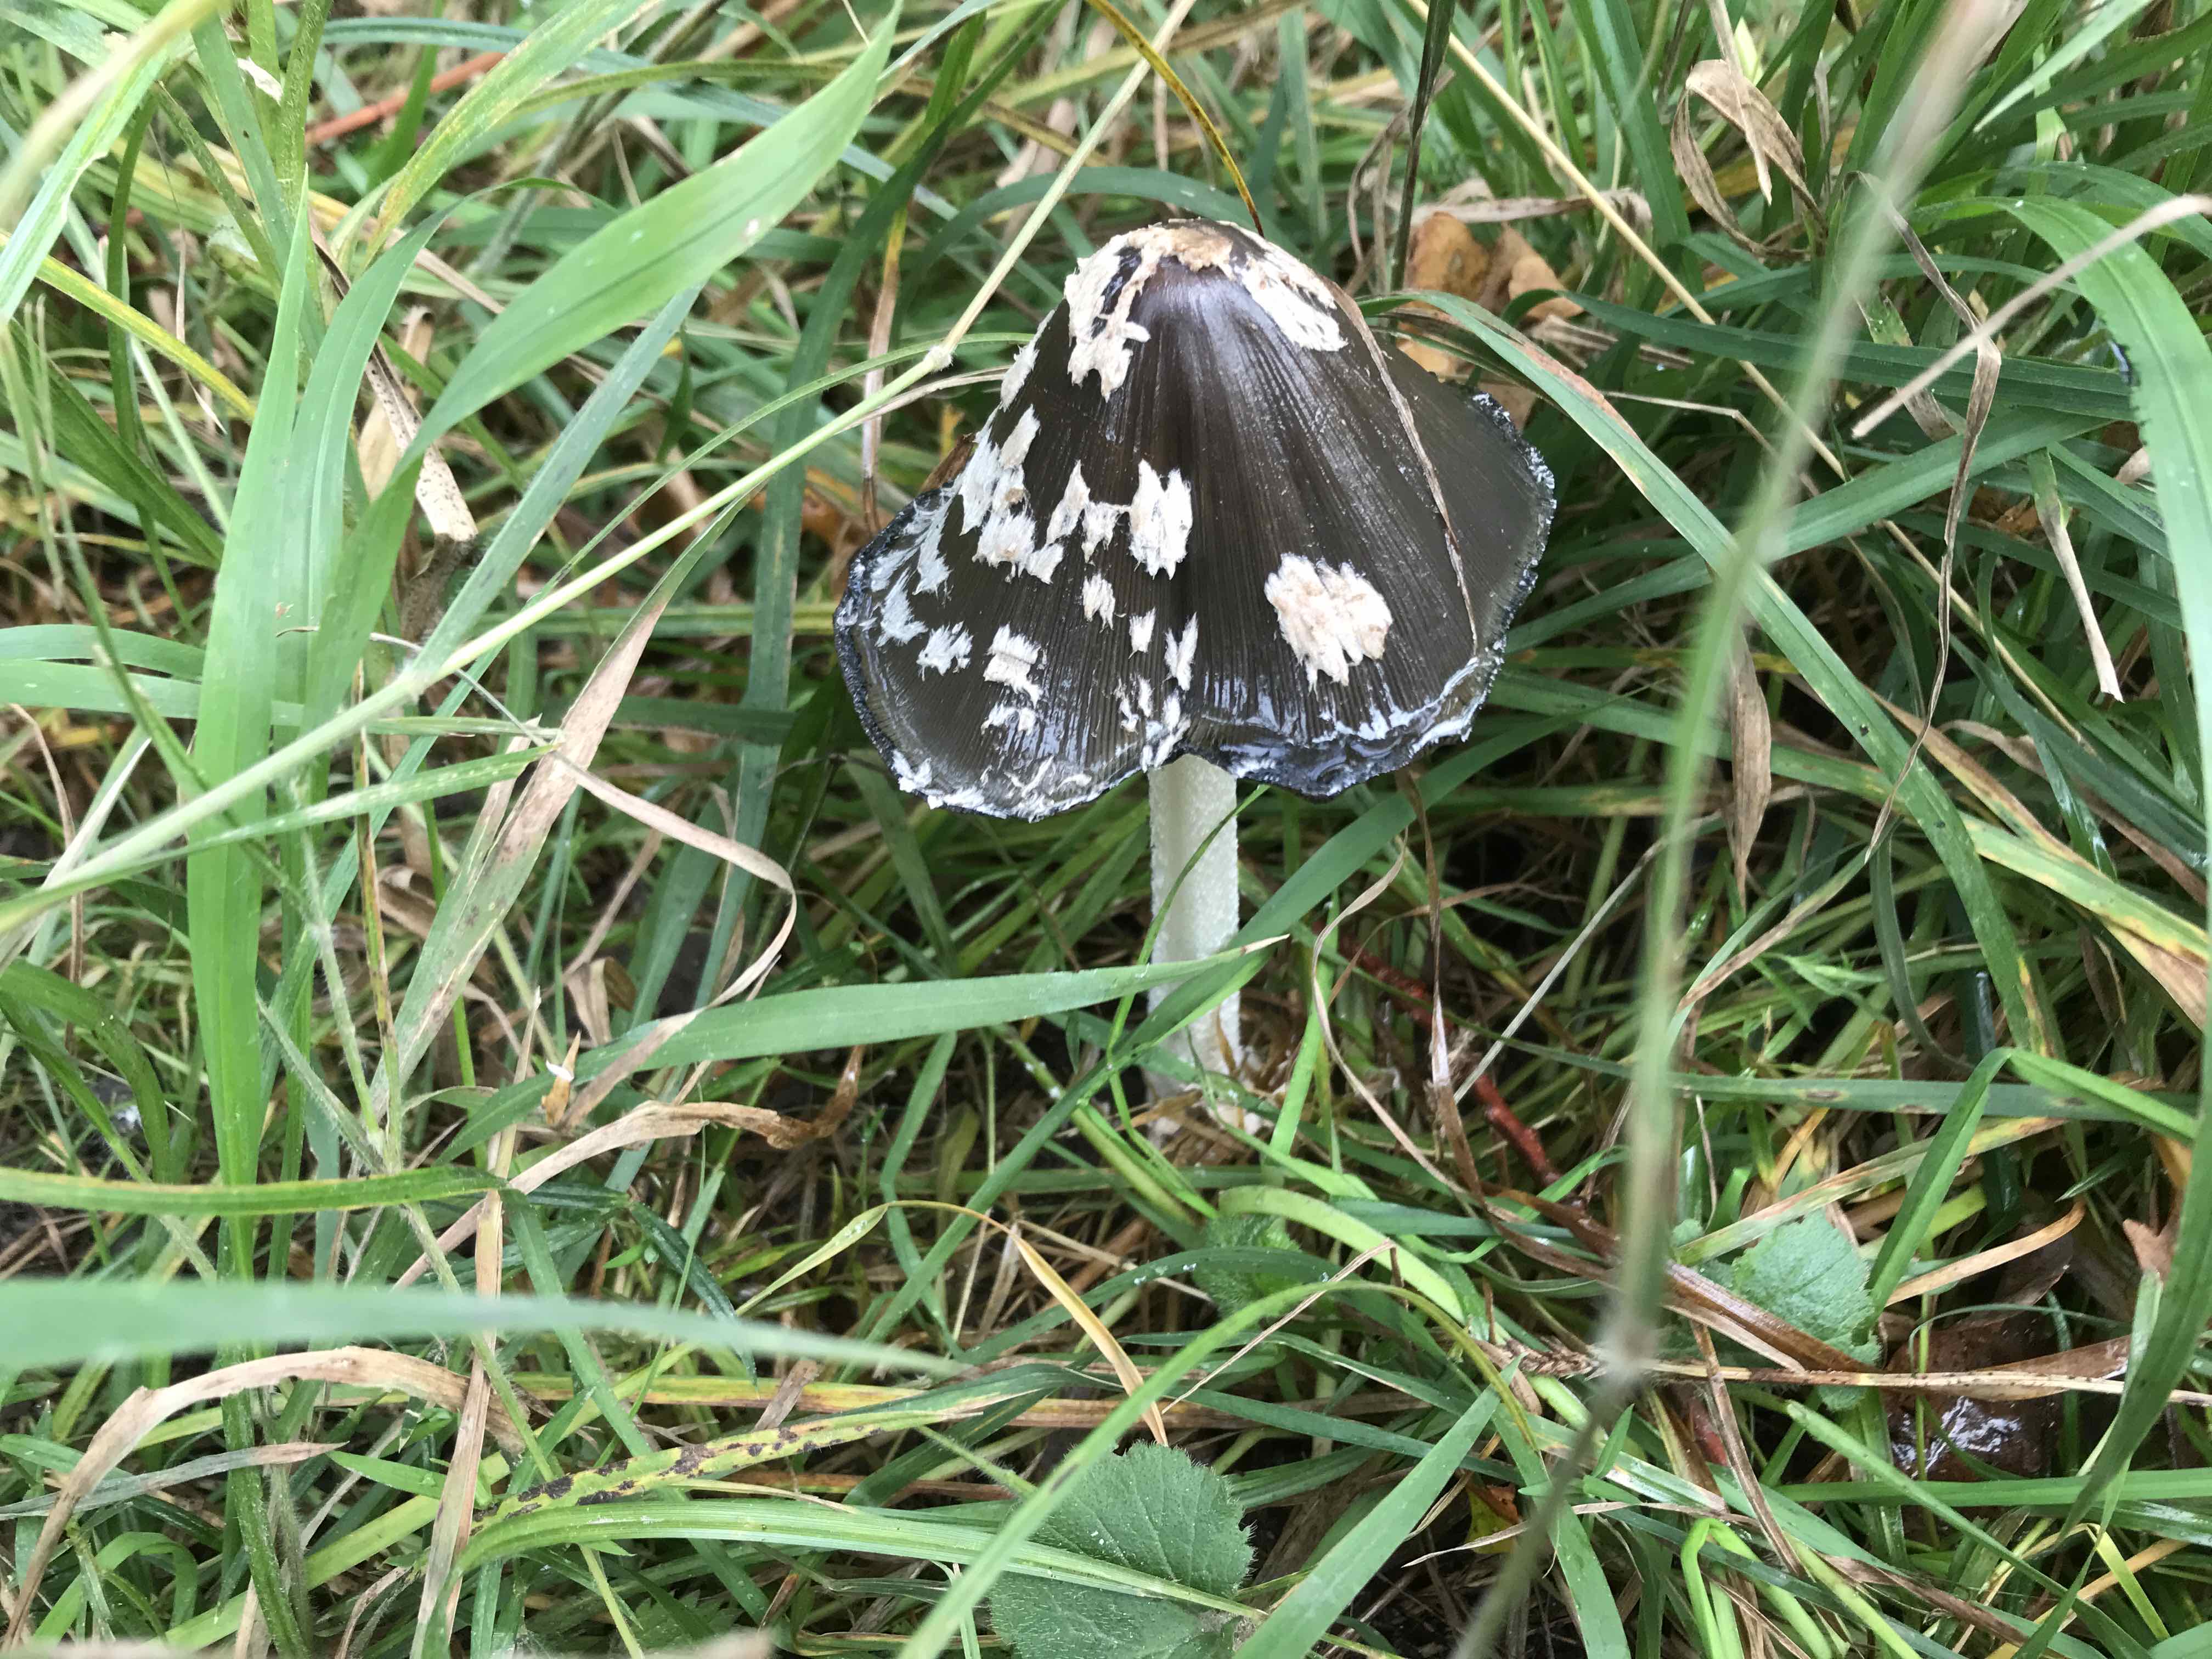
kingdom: Fungi
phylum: Basidiomycota
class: Agaricomycetes
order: Agaricales
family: Psathyrellaceae
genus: Coprinopsis
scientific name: Coprinopsis picacea
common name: skade-blækhat
